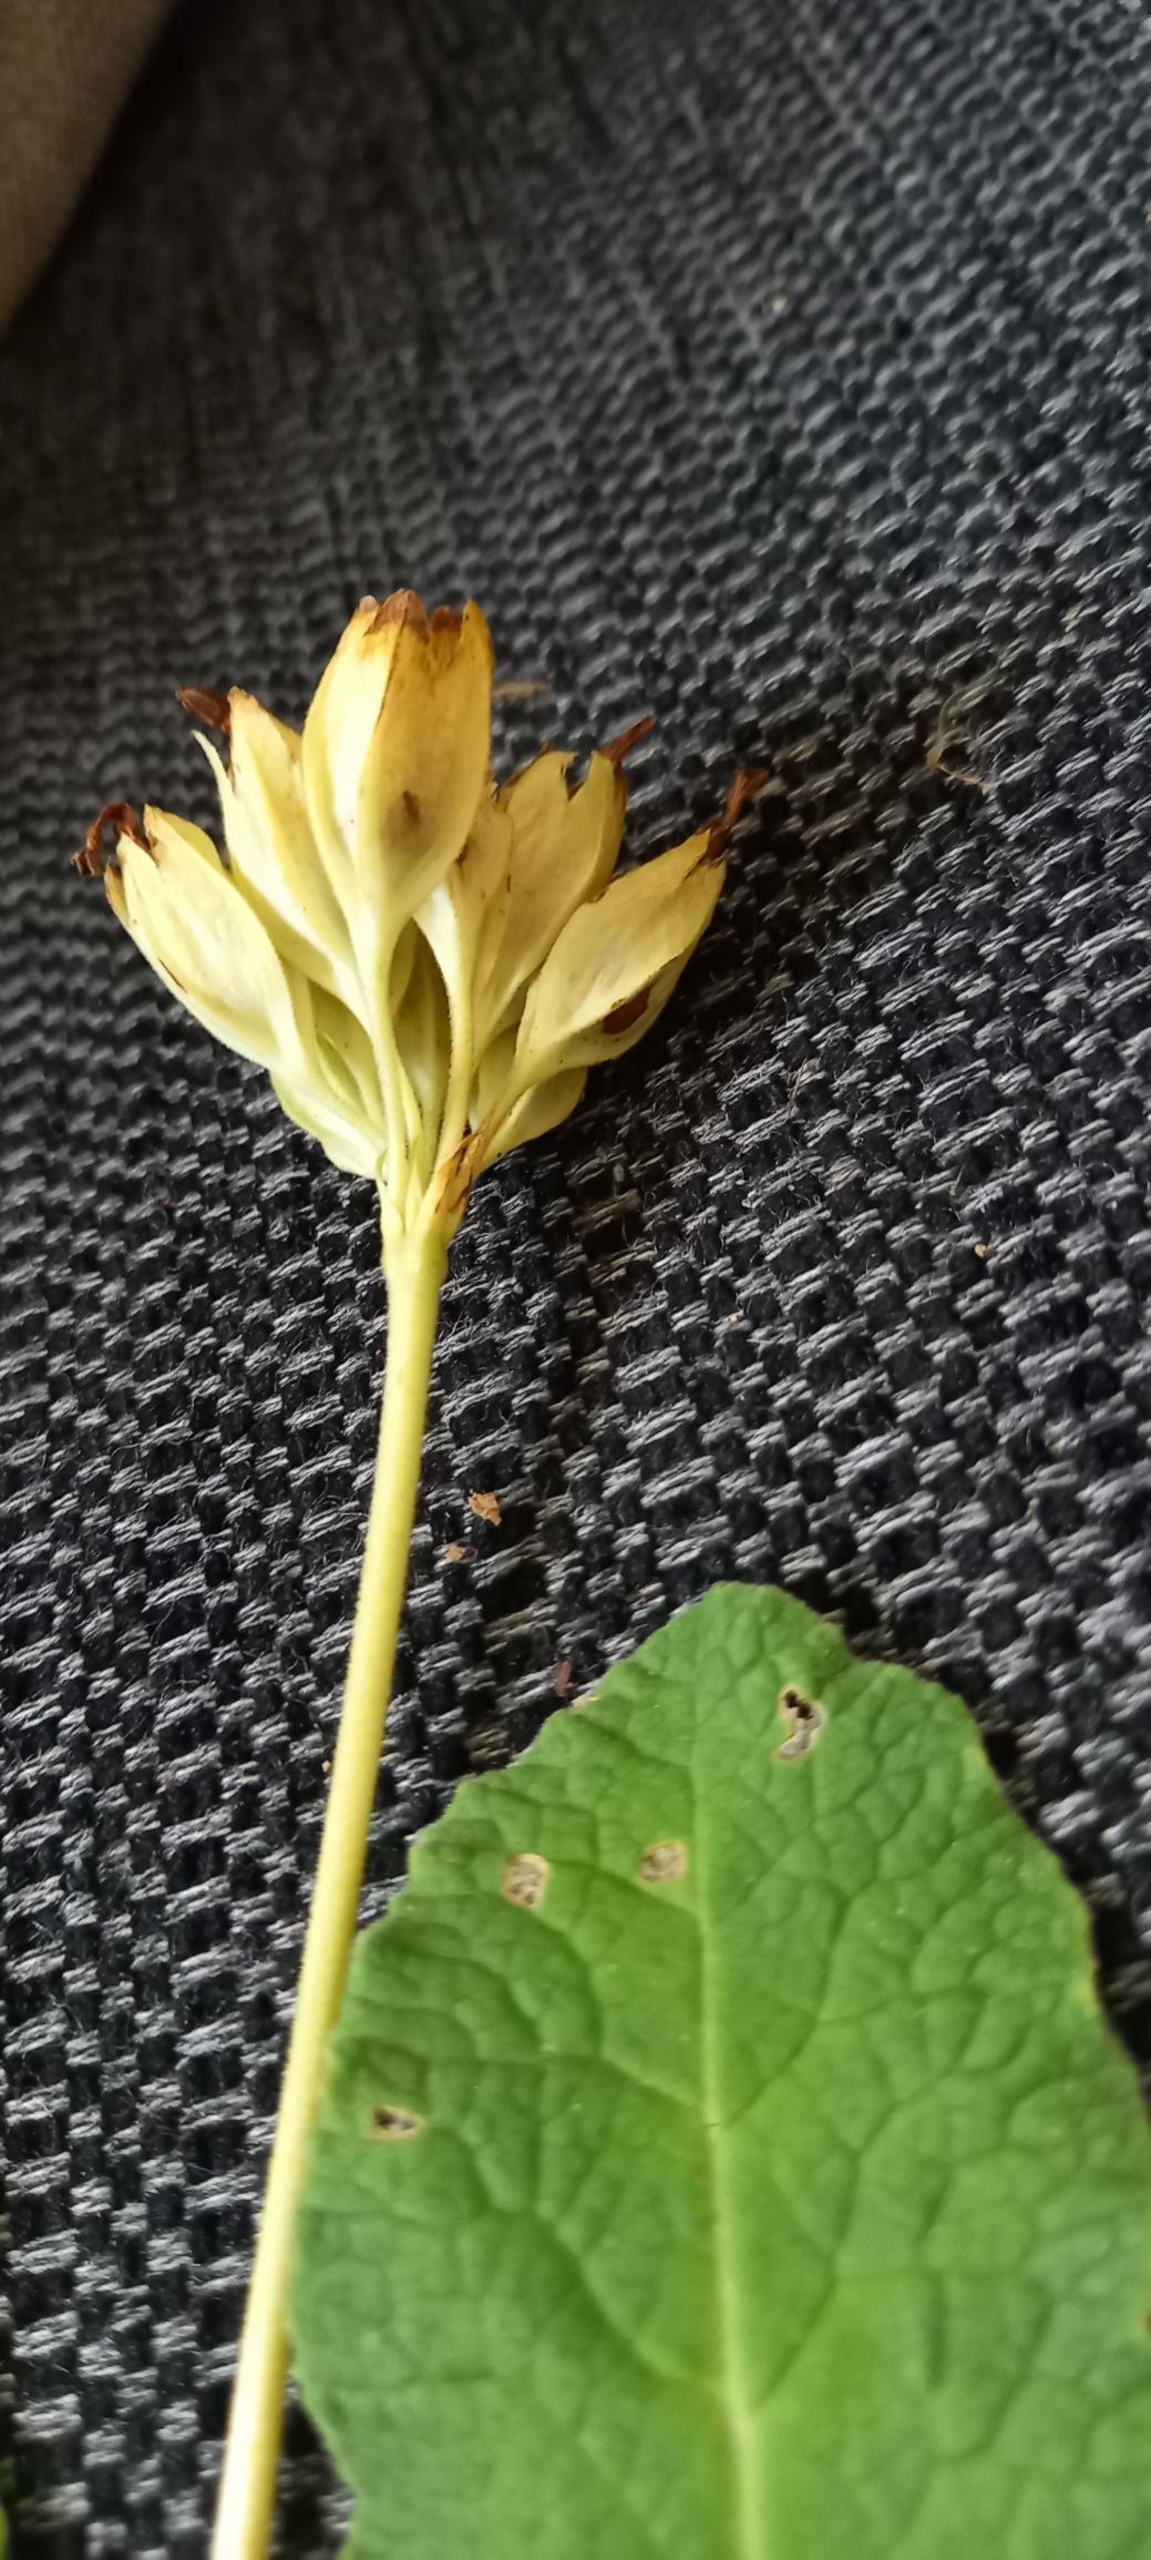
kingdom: Plantae
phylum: Tracheophyta
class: Magnoliopsida
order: Ericales
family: Primulaceae
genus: Primula
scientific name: Primula veris
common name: Hulkravet kodriver
